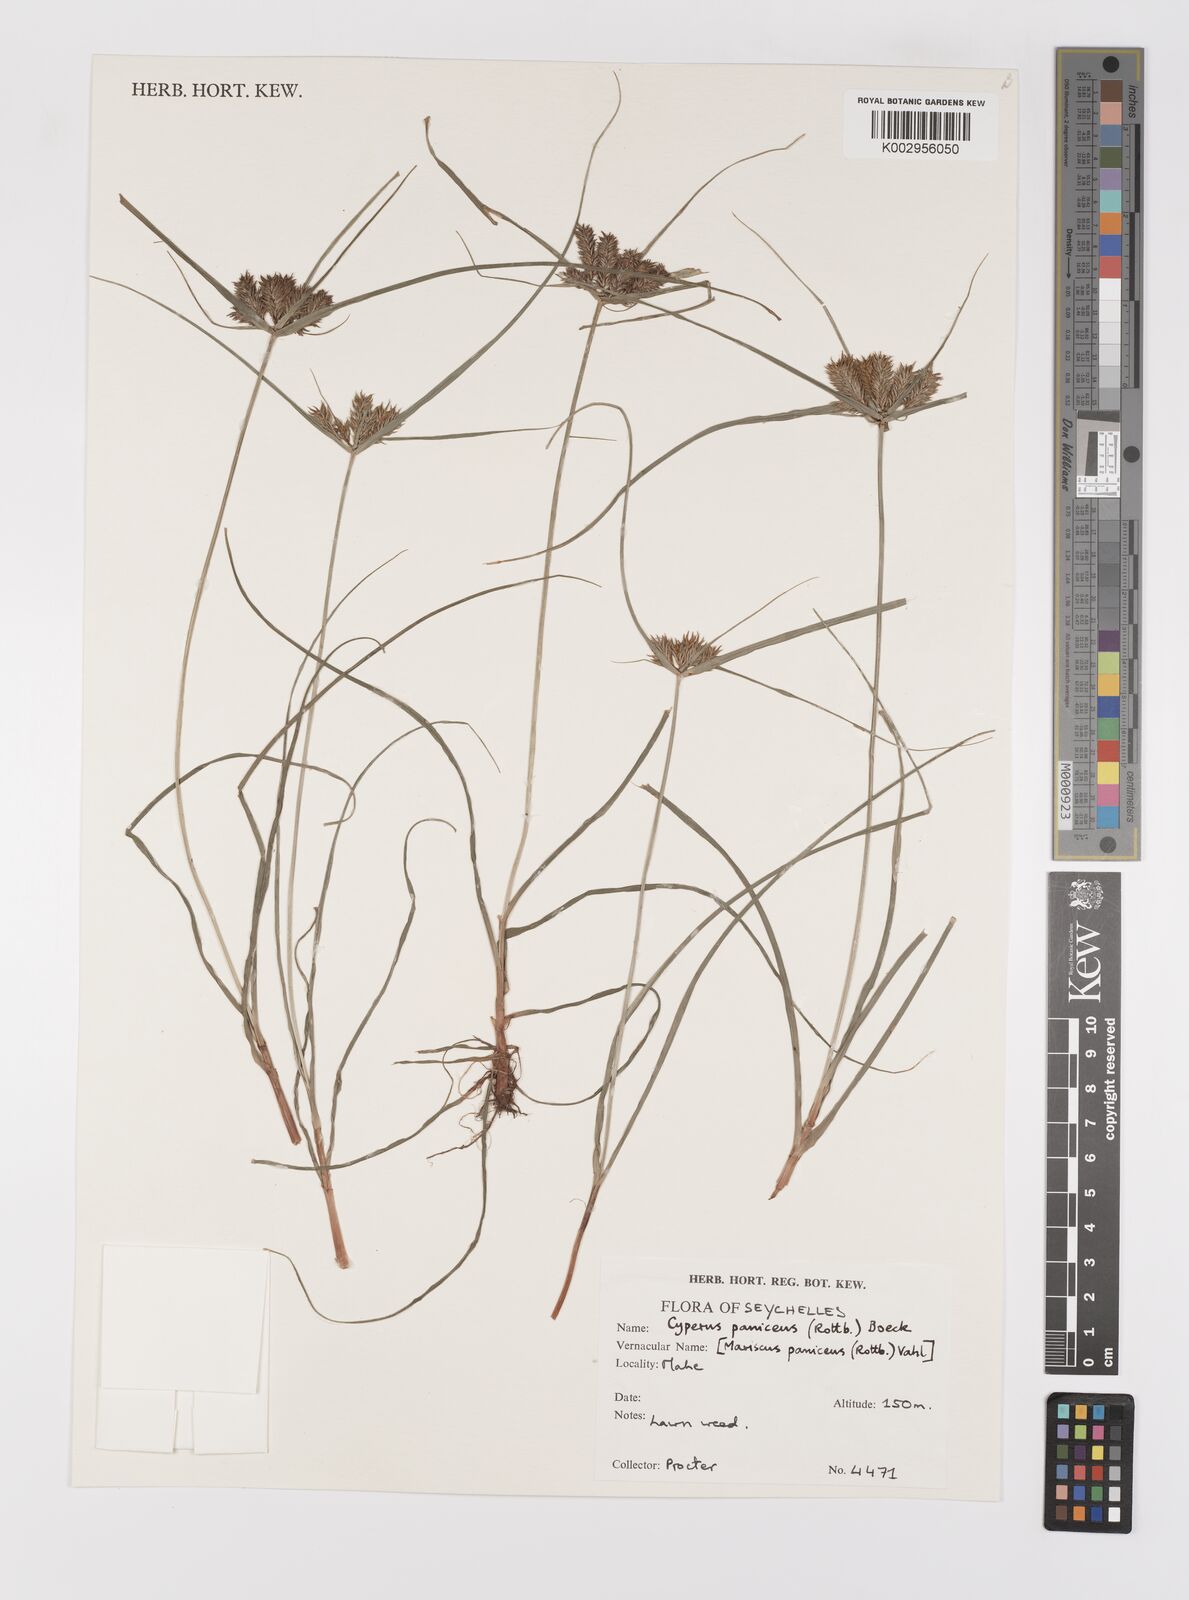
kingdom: Plantae
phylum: Tracheophyta
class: Liliopsida
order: Poales
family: Cyperaceae
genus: Cyperus
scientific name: Cyperus paniceus
